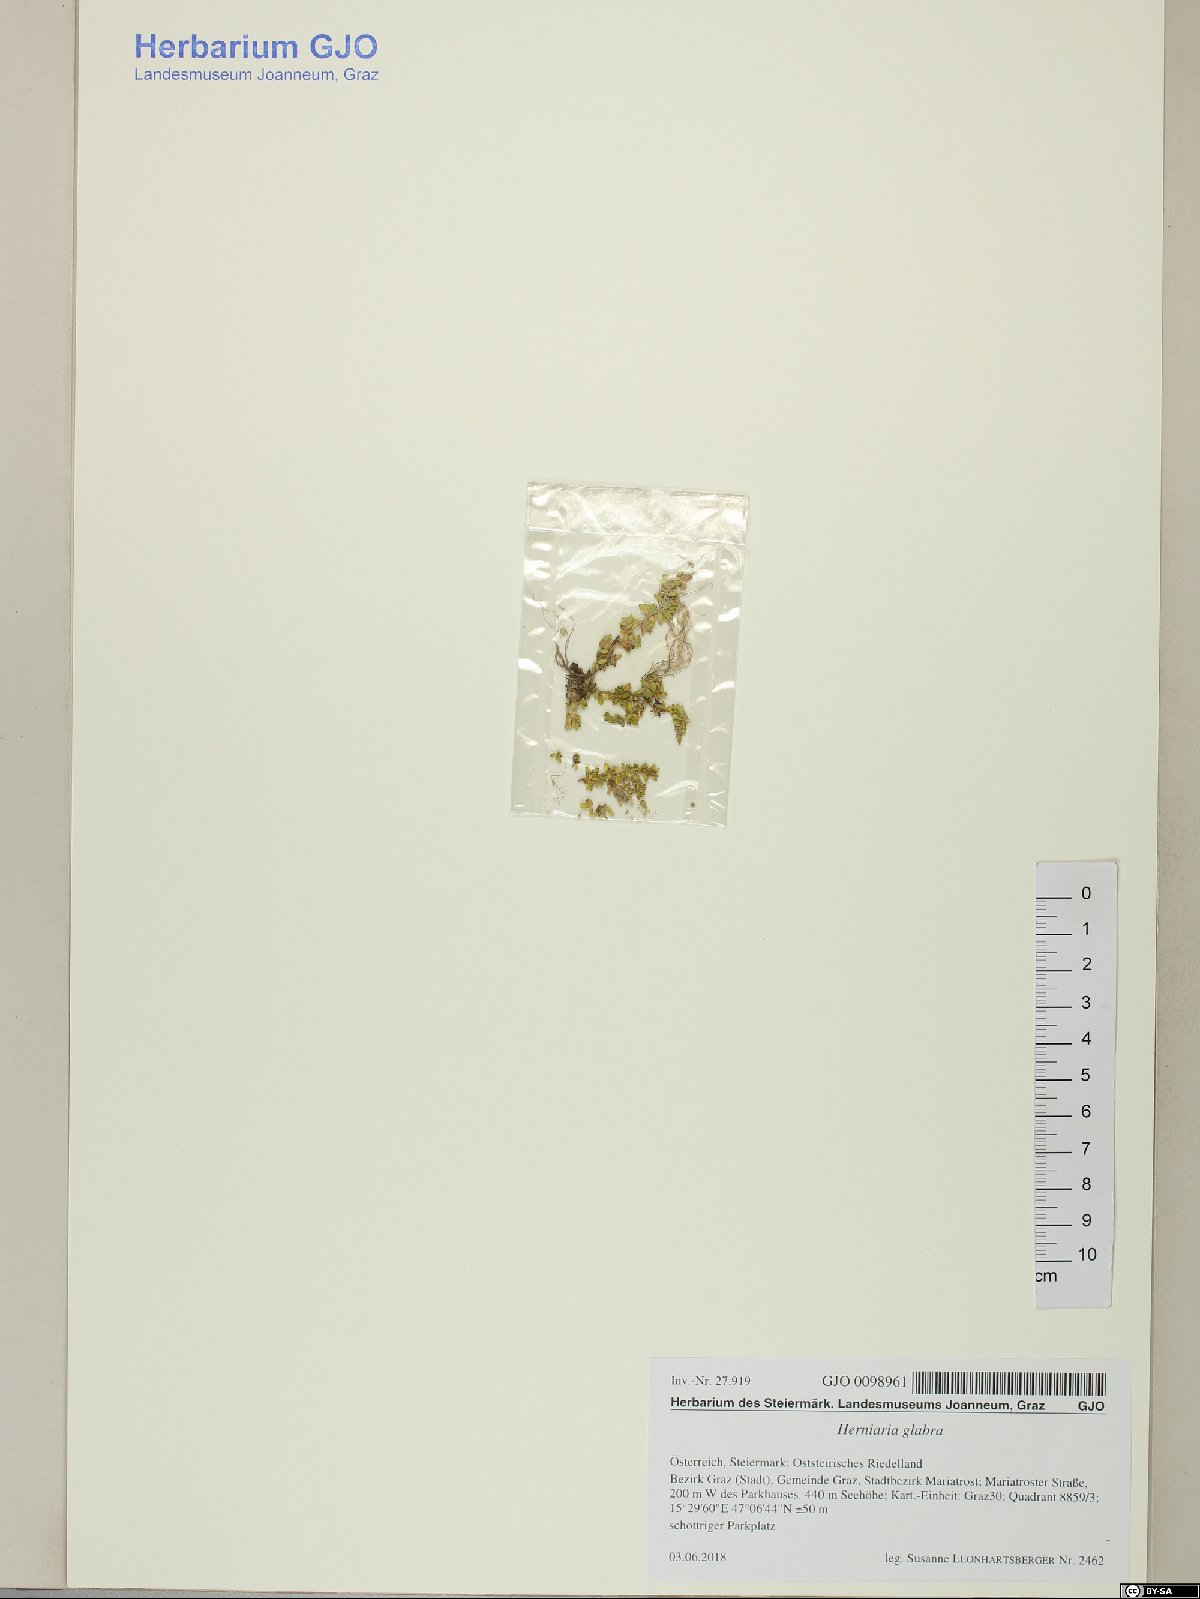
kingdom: Plantae
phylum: Tracheophyta
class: Magnoliopsida
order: Caryophyllales
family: Caryophyllaceae
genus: Herniaria
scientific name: Herniaria glabra
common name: Smooth rupturewort
